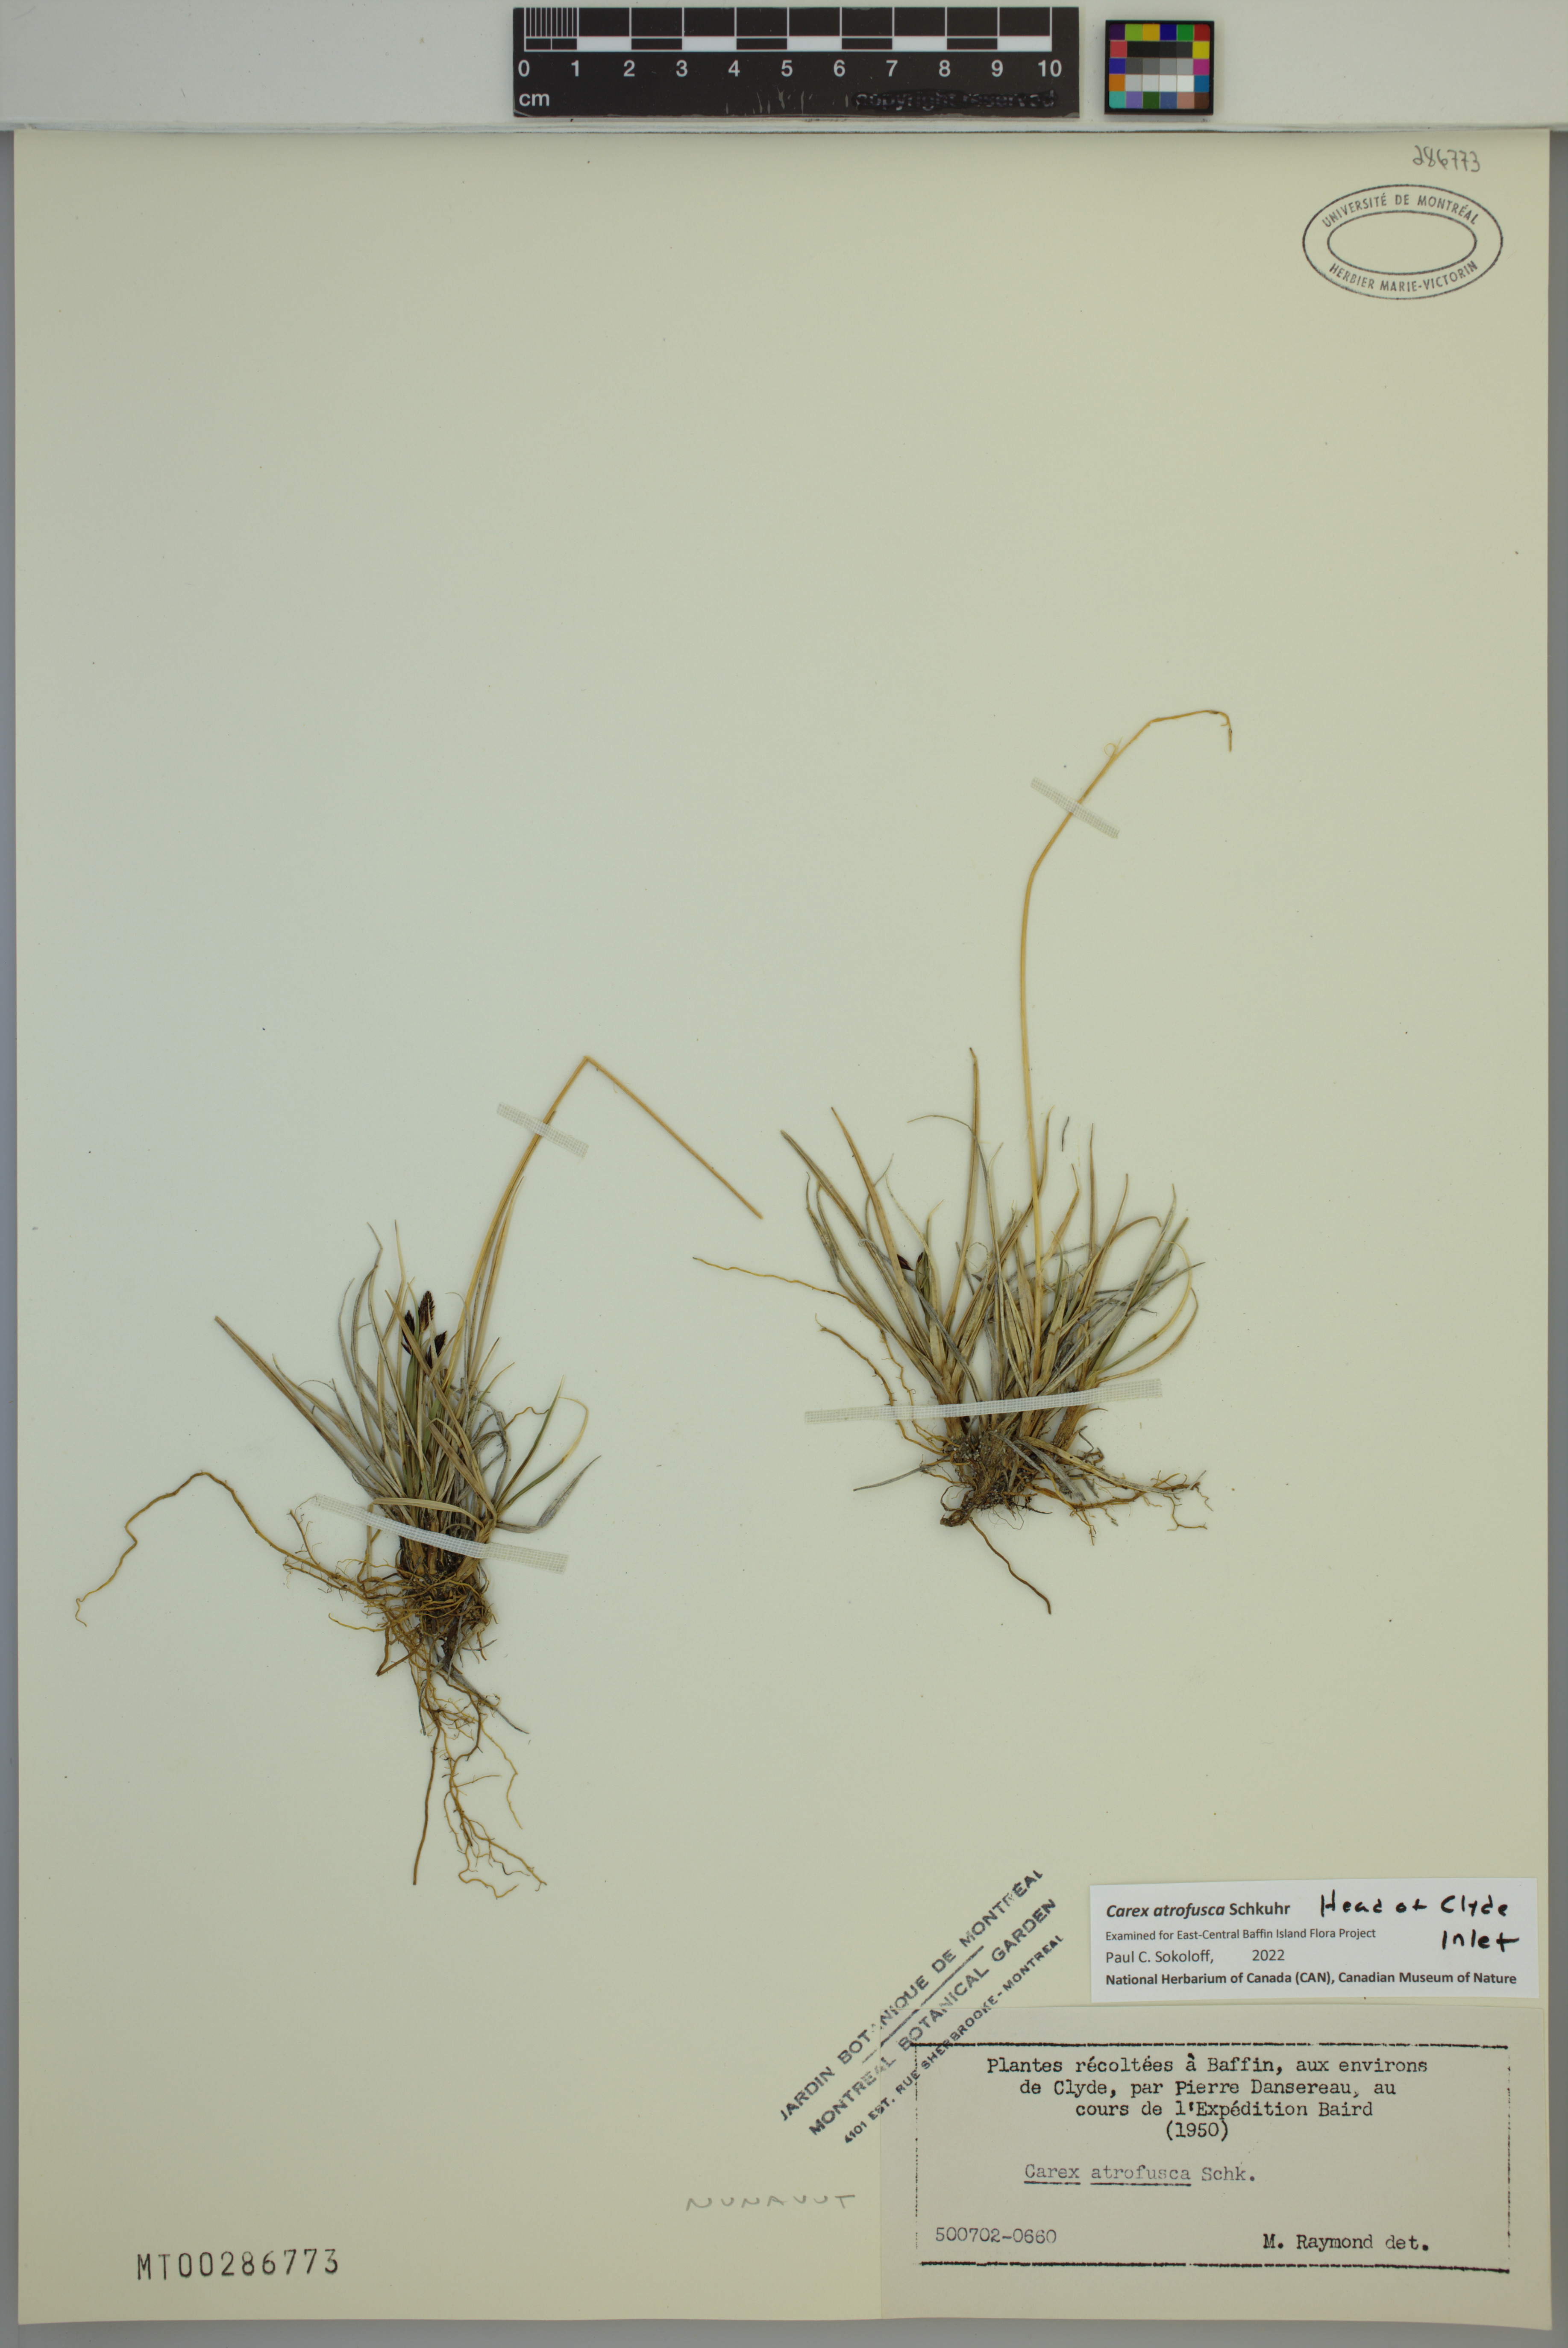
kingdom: Plantae
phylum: Tracheophyta
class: Liliopsida
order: Poales
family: Cyperaceae
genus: Carex
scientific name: Carex atrofusca
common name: Scorched alpine-sedge
